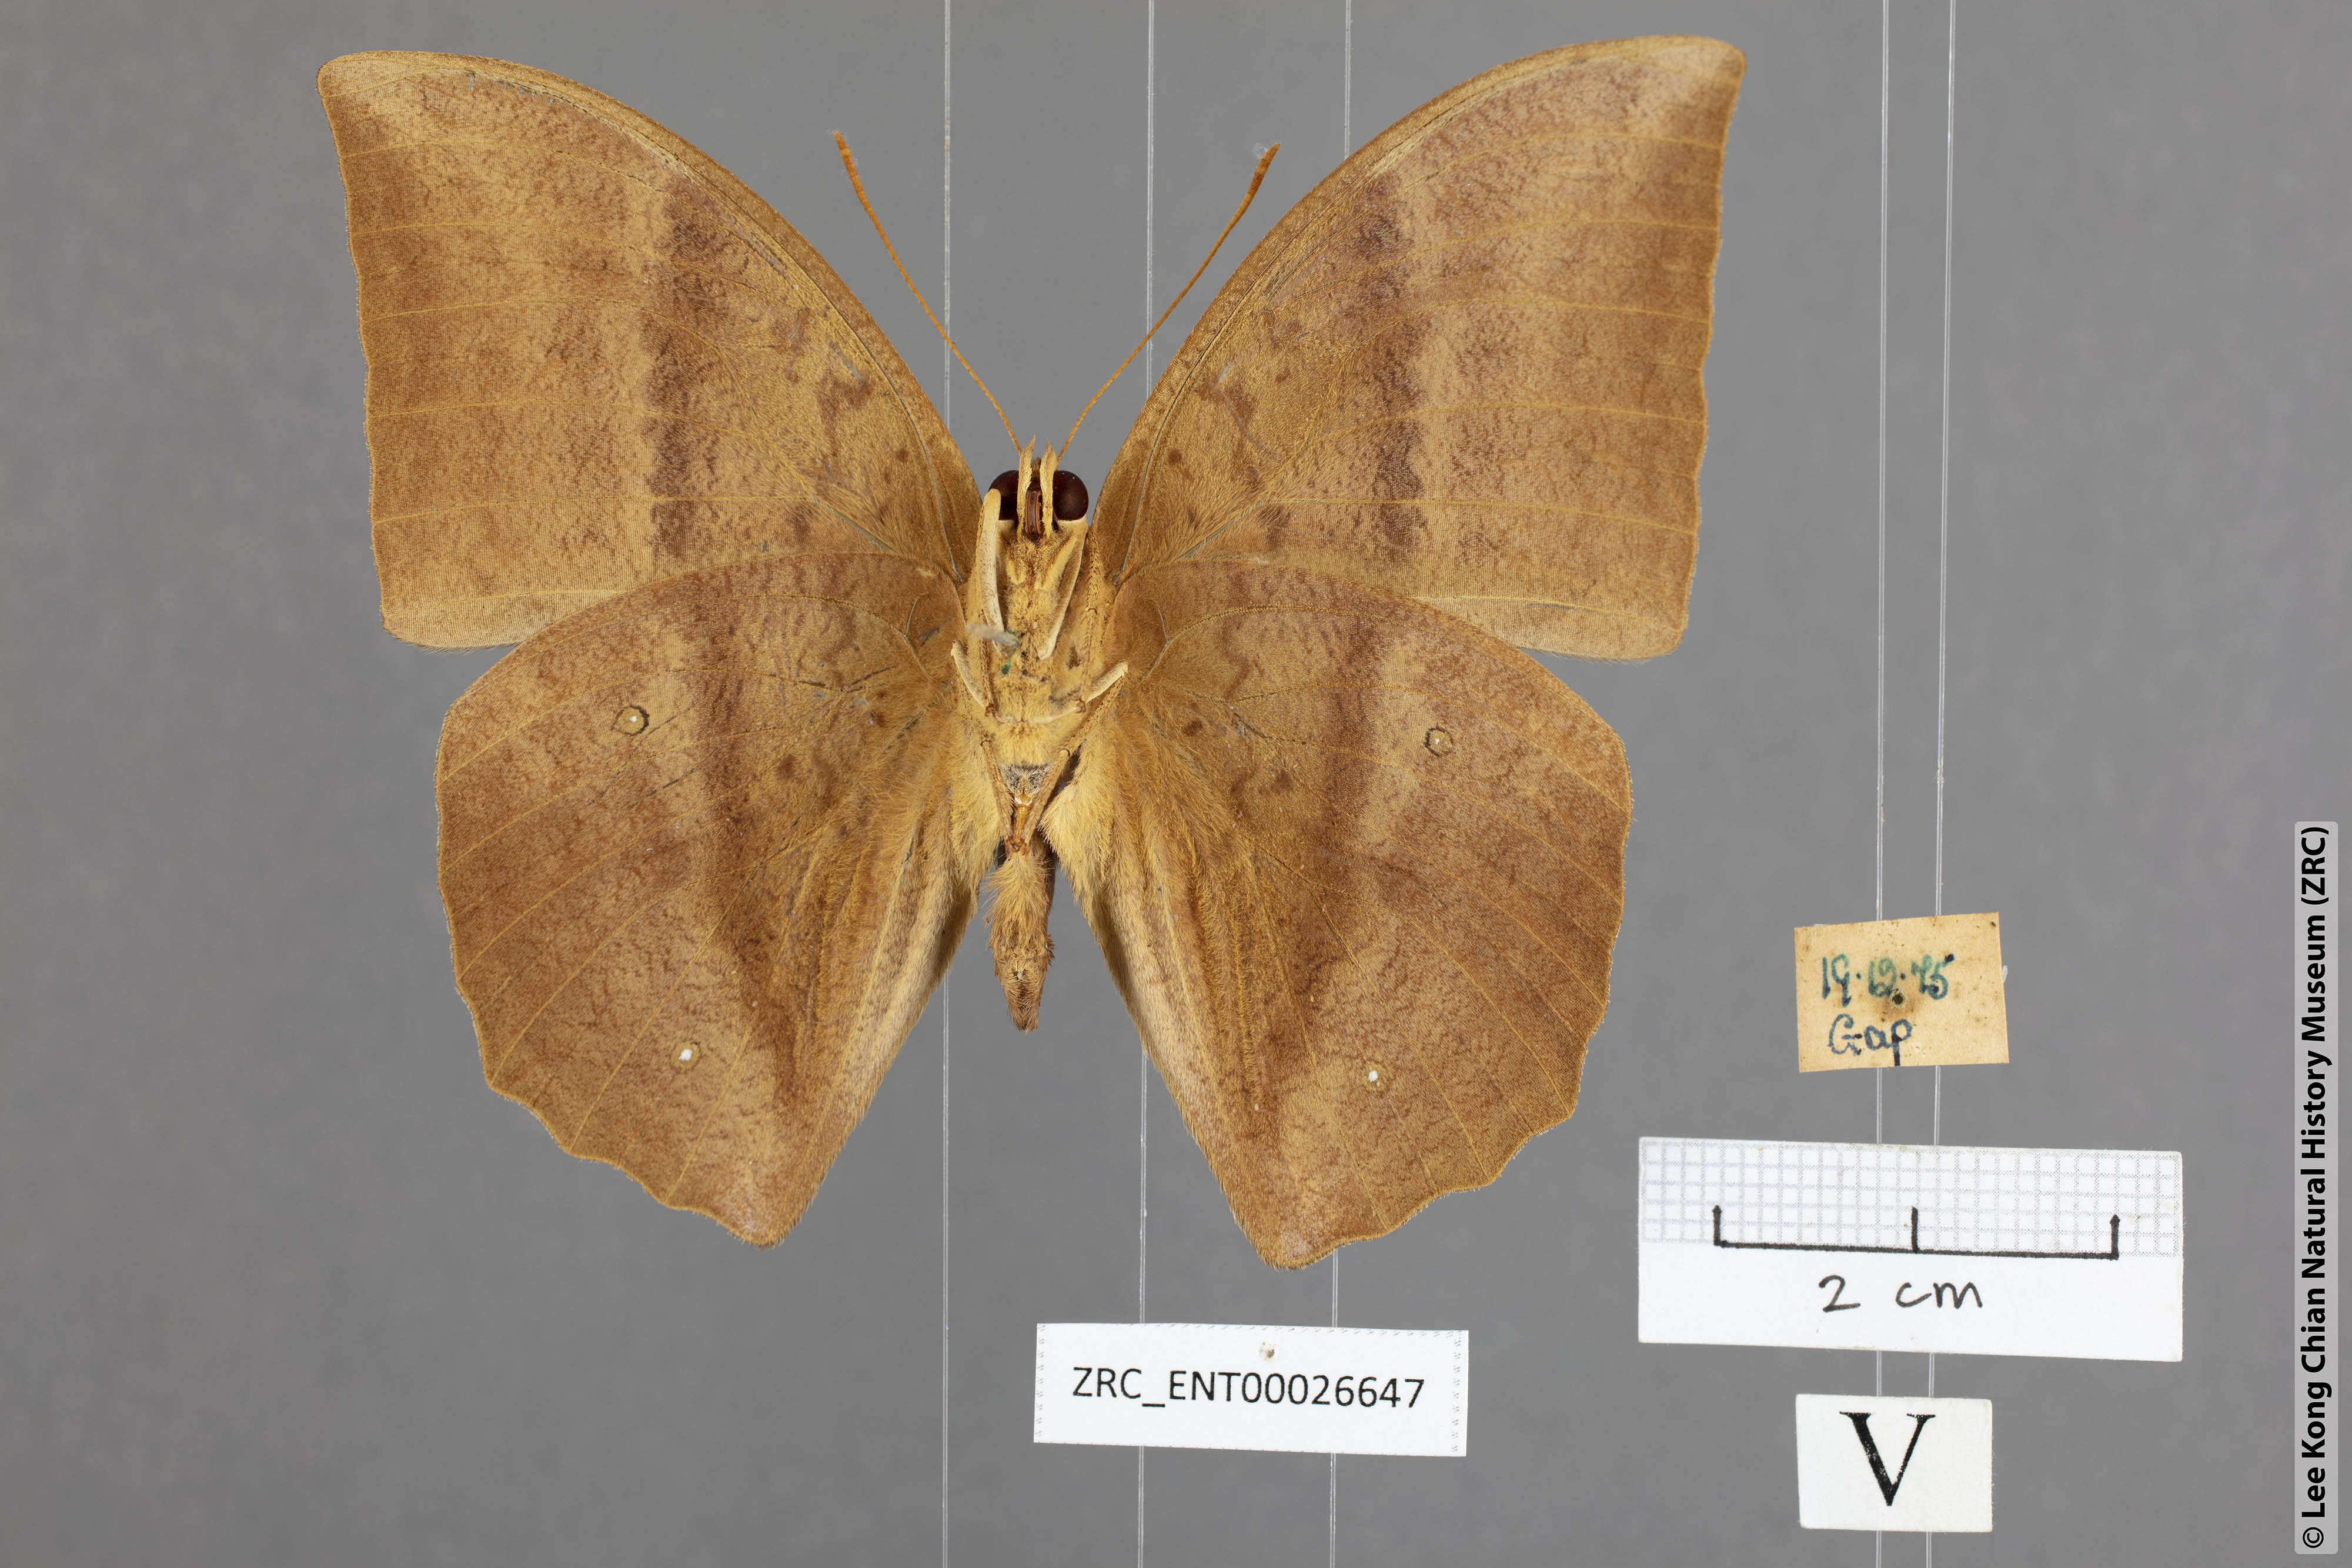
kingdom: Animalia
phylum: Arthropoda
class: Insecta
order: Lepidoptera
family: Nymphalidae
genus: Discophora
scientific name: Discophora sondaica
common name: Common duffer
